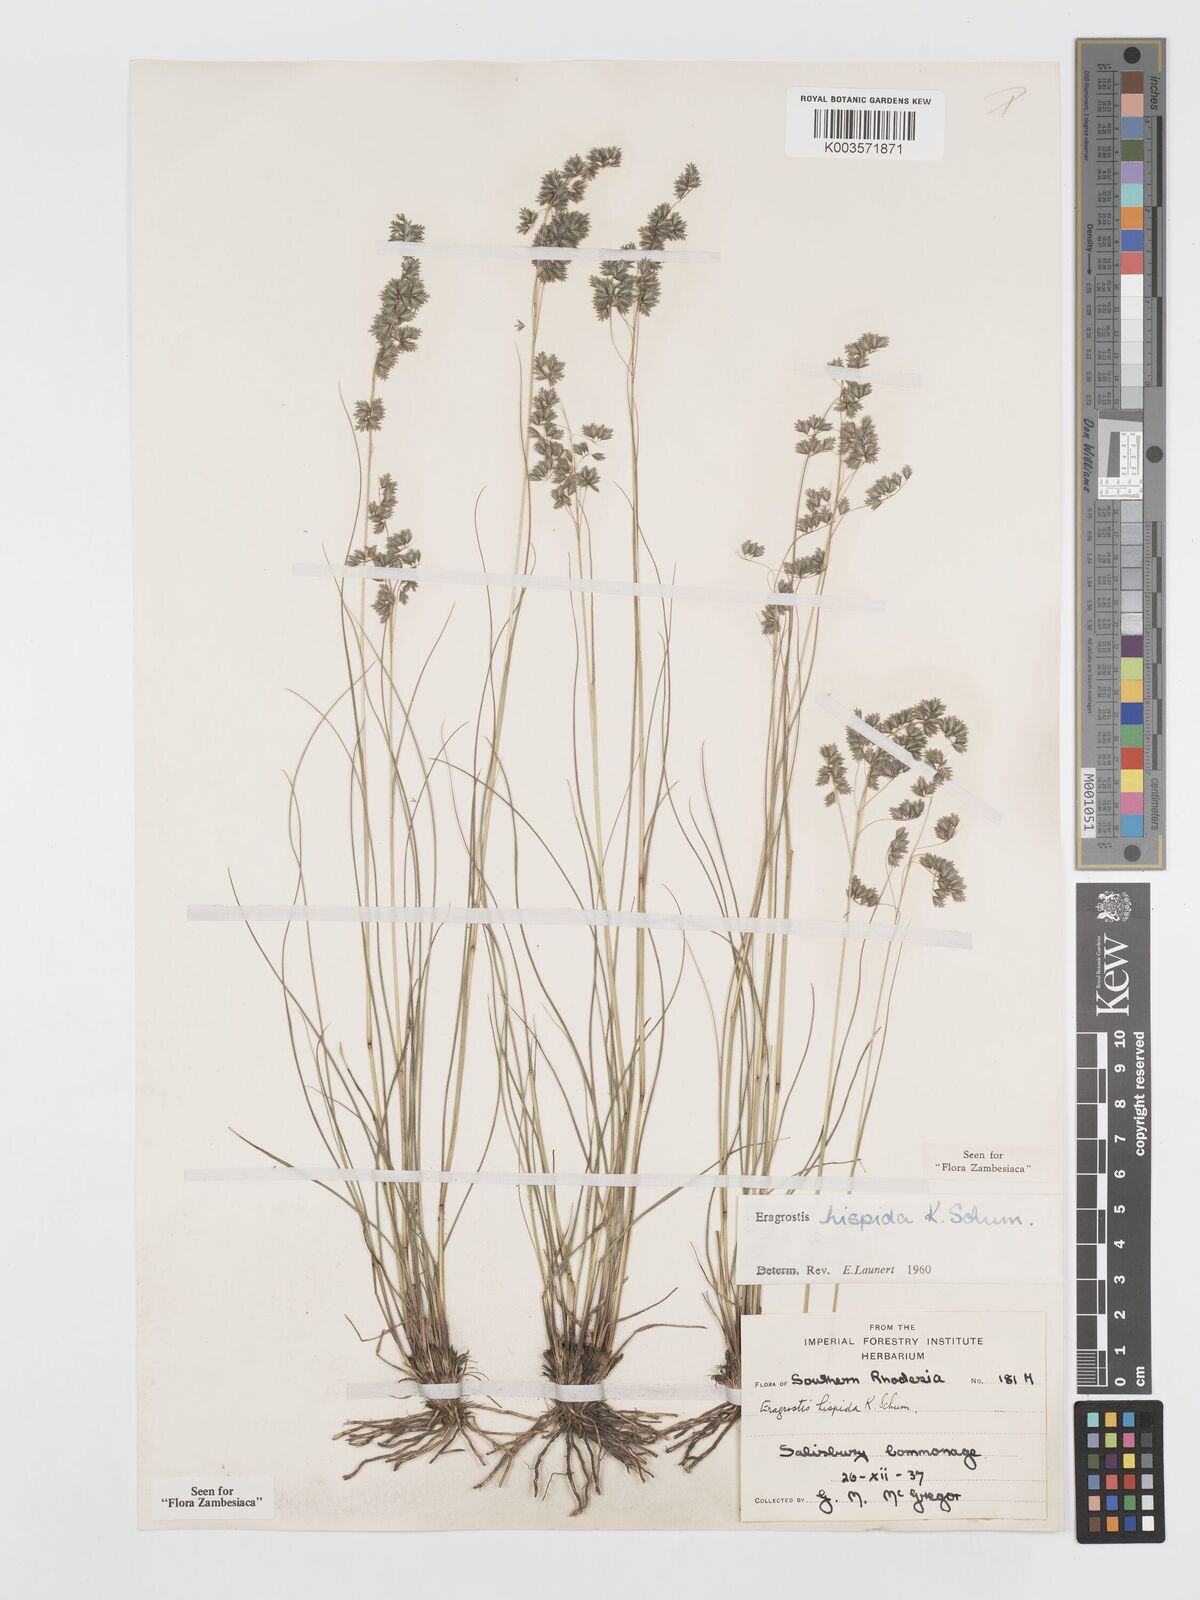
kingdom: Plantae
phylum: Tracheophyta
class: Liliopsida
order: Poales
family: Poaceae
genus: Eragrostis
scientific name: Eragrostis hispida
